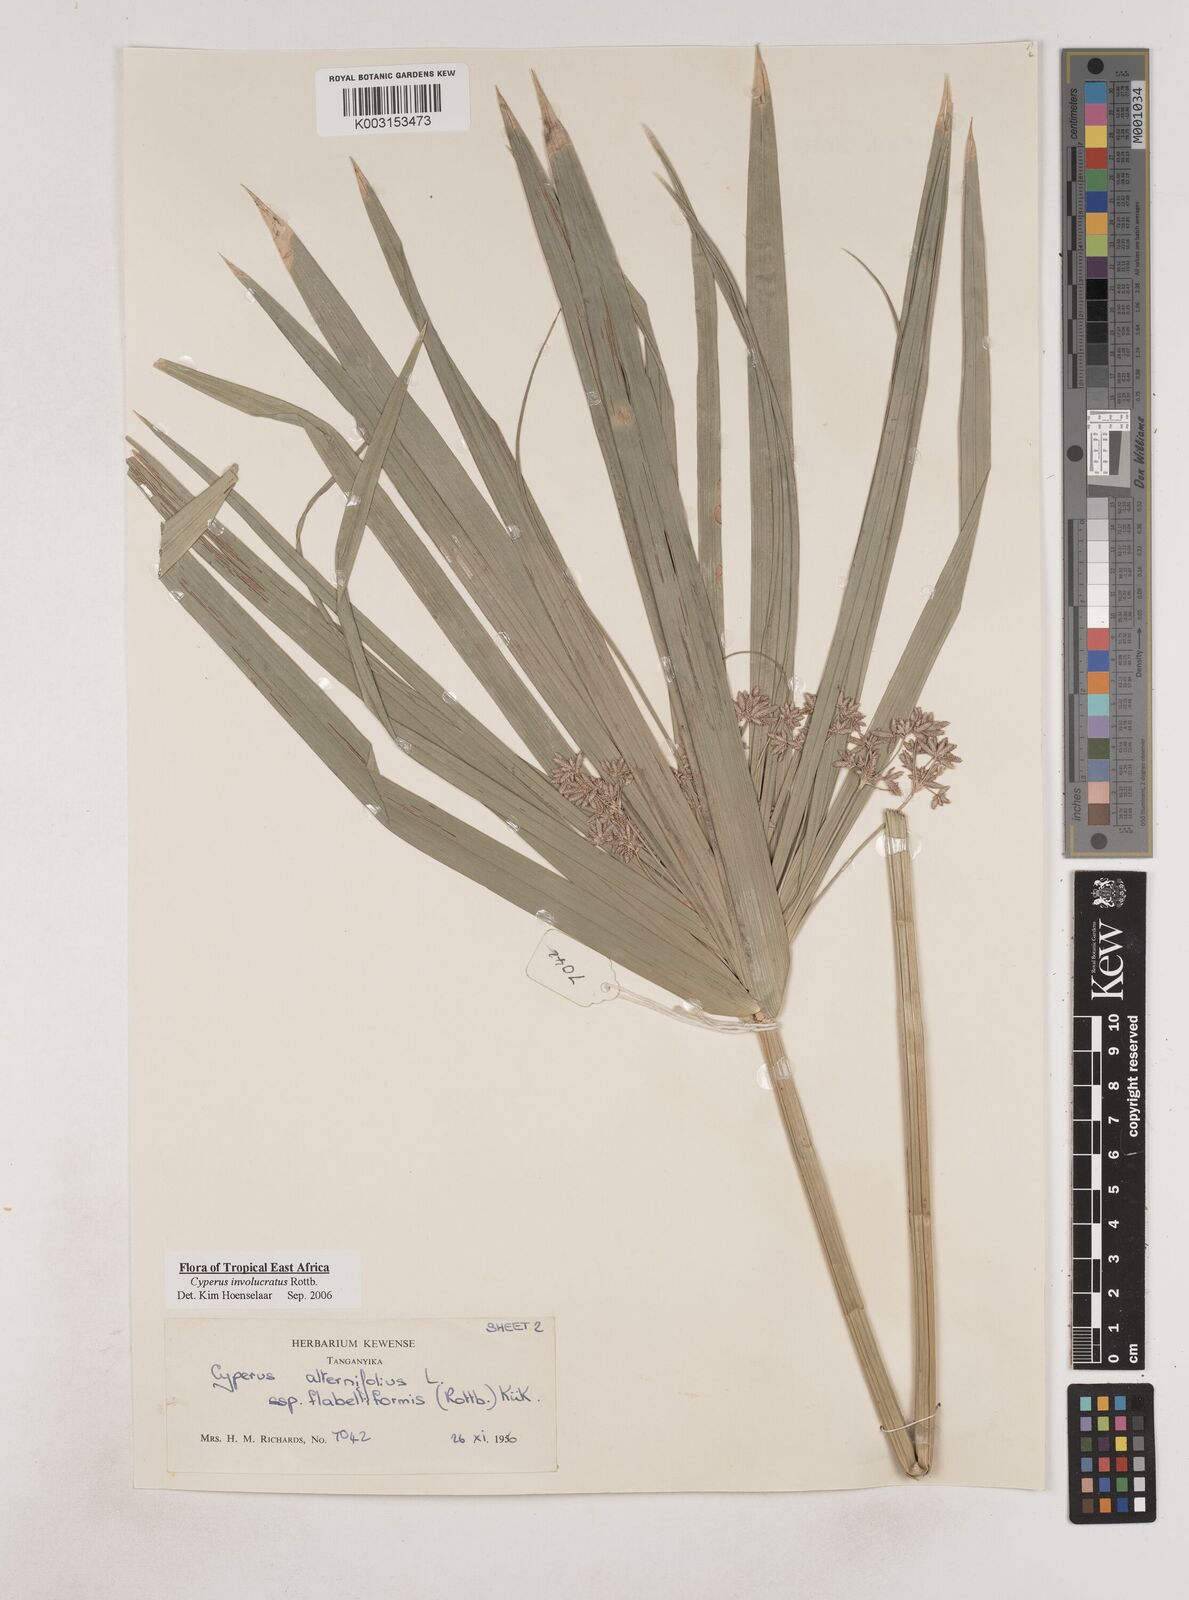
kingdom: Plantae
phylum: Tracheophyta
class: Liliopsida
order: Poales
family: Cyperaceae
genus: Cyperus
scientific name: Cyperus alternifolius
